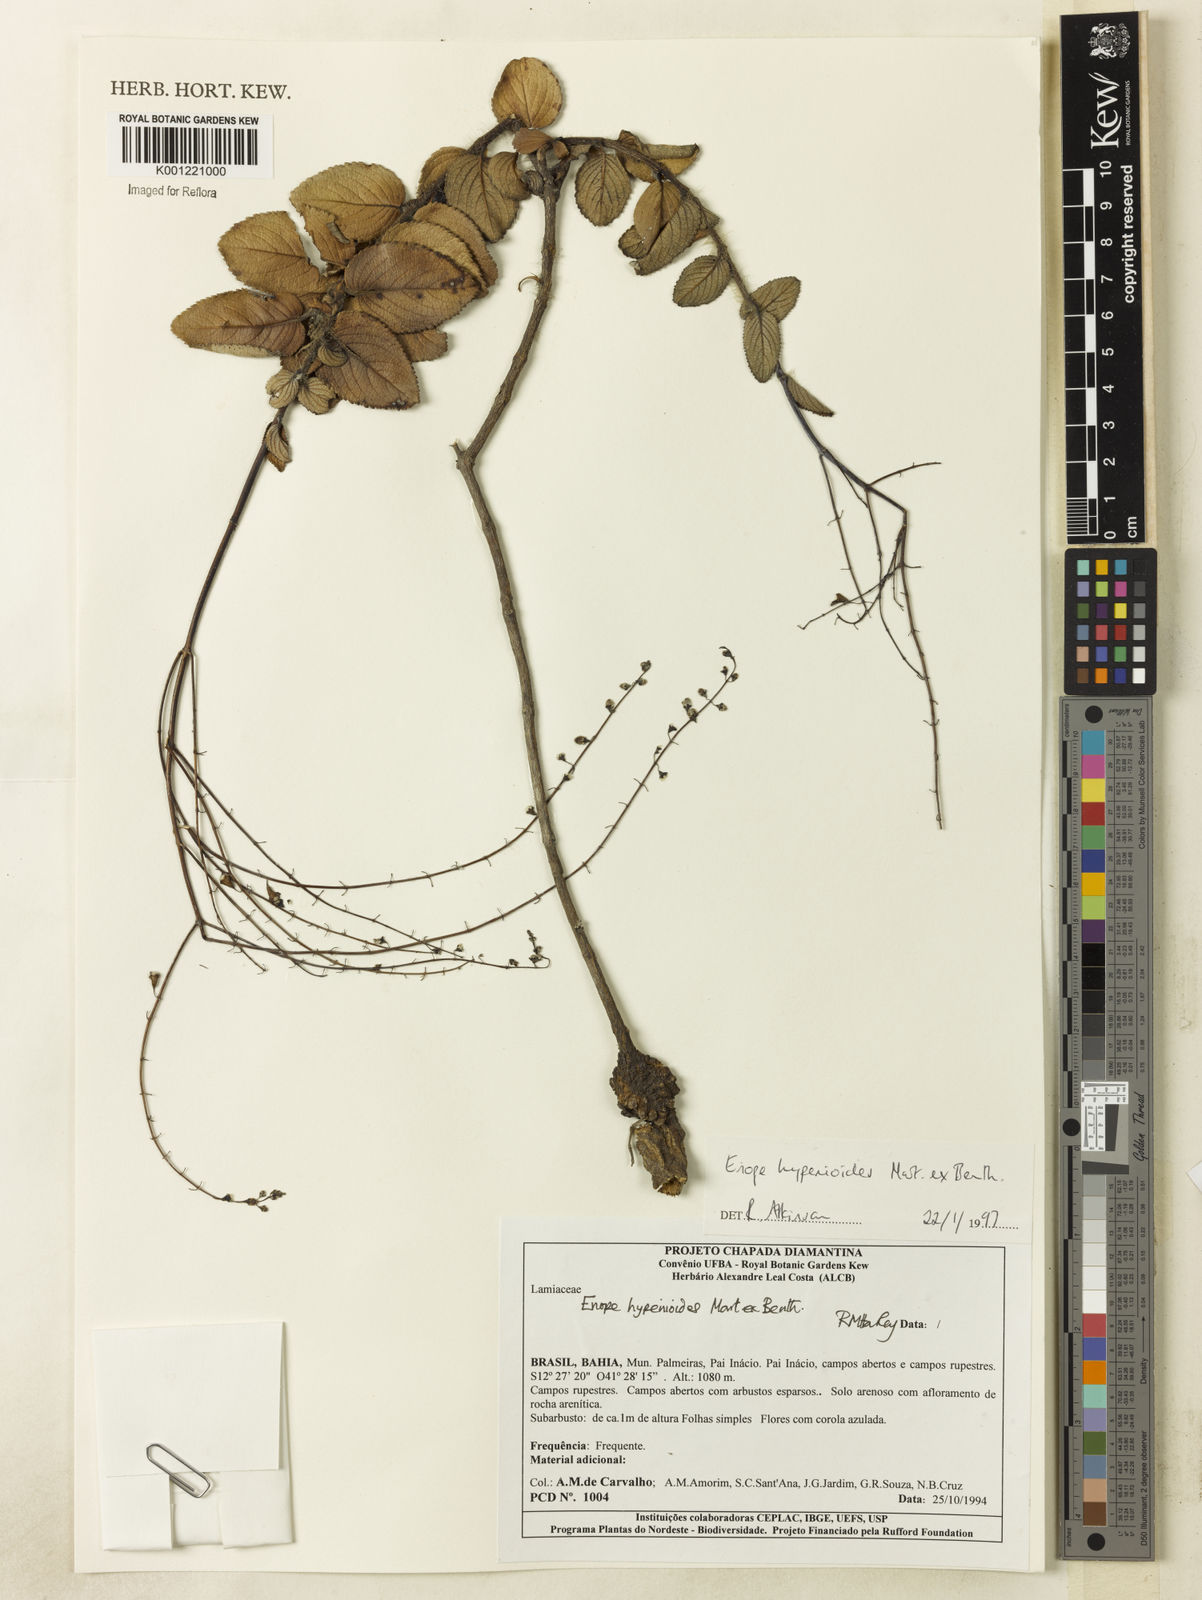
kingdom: Plantae
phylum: Tracheophyta
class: Magnoliopsida
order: Lamiales
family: Lamiaceae
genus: Eriope
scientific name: Eriope hypenioides
